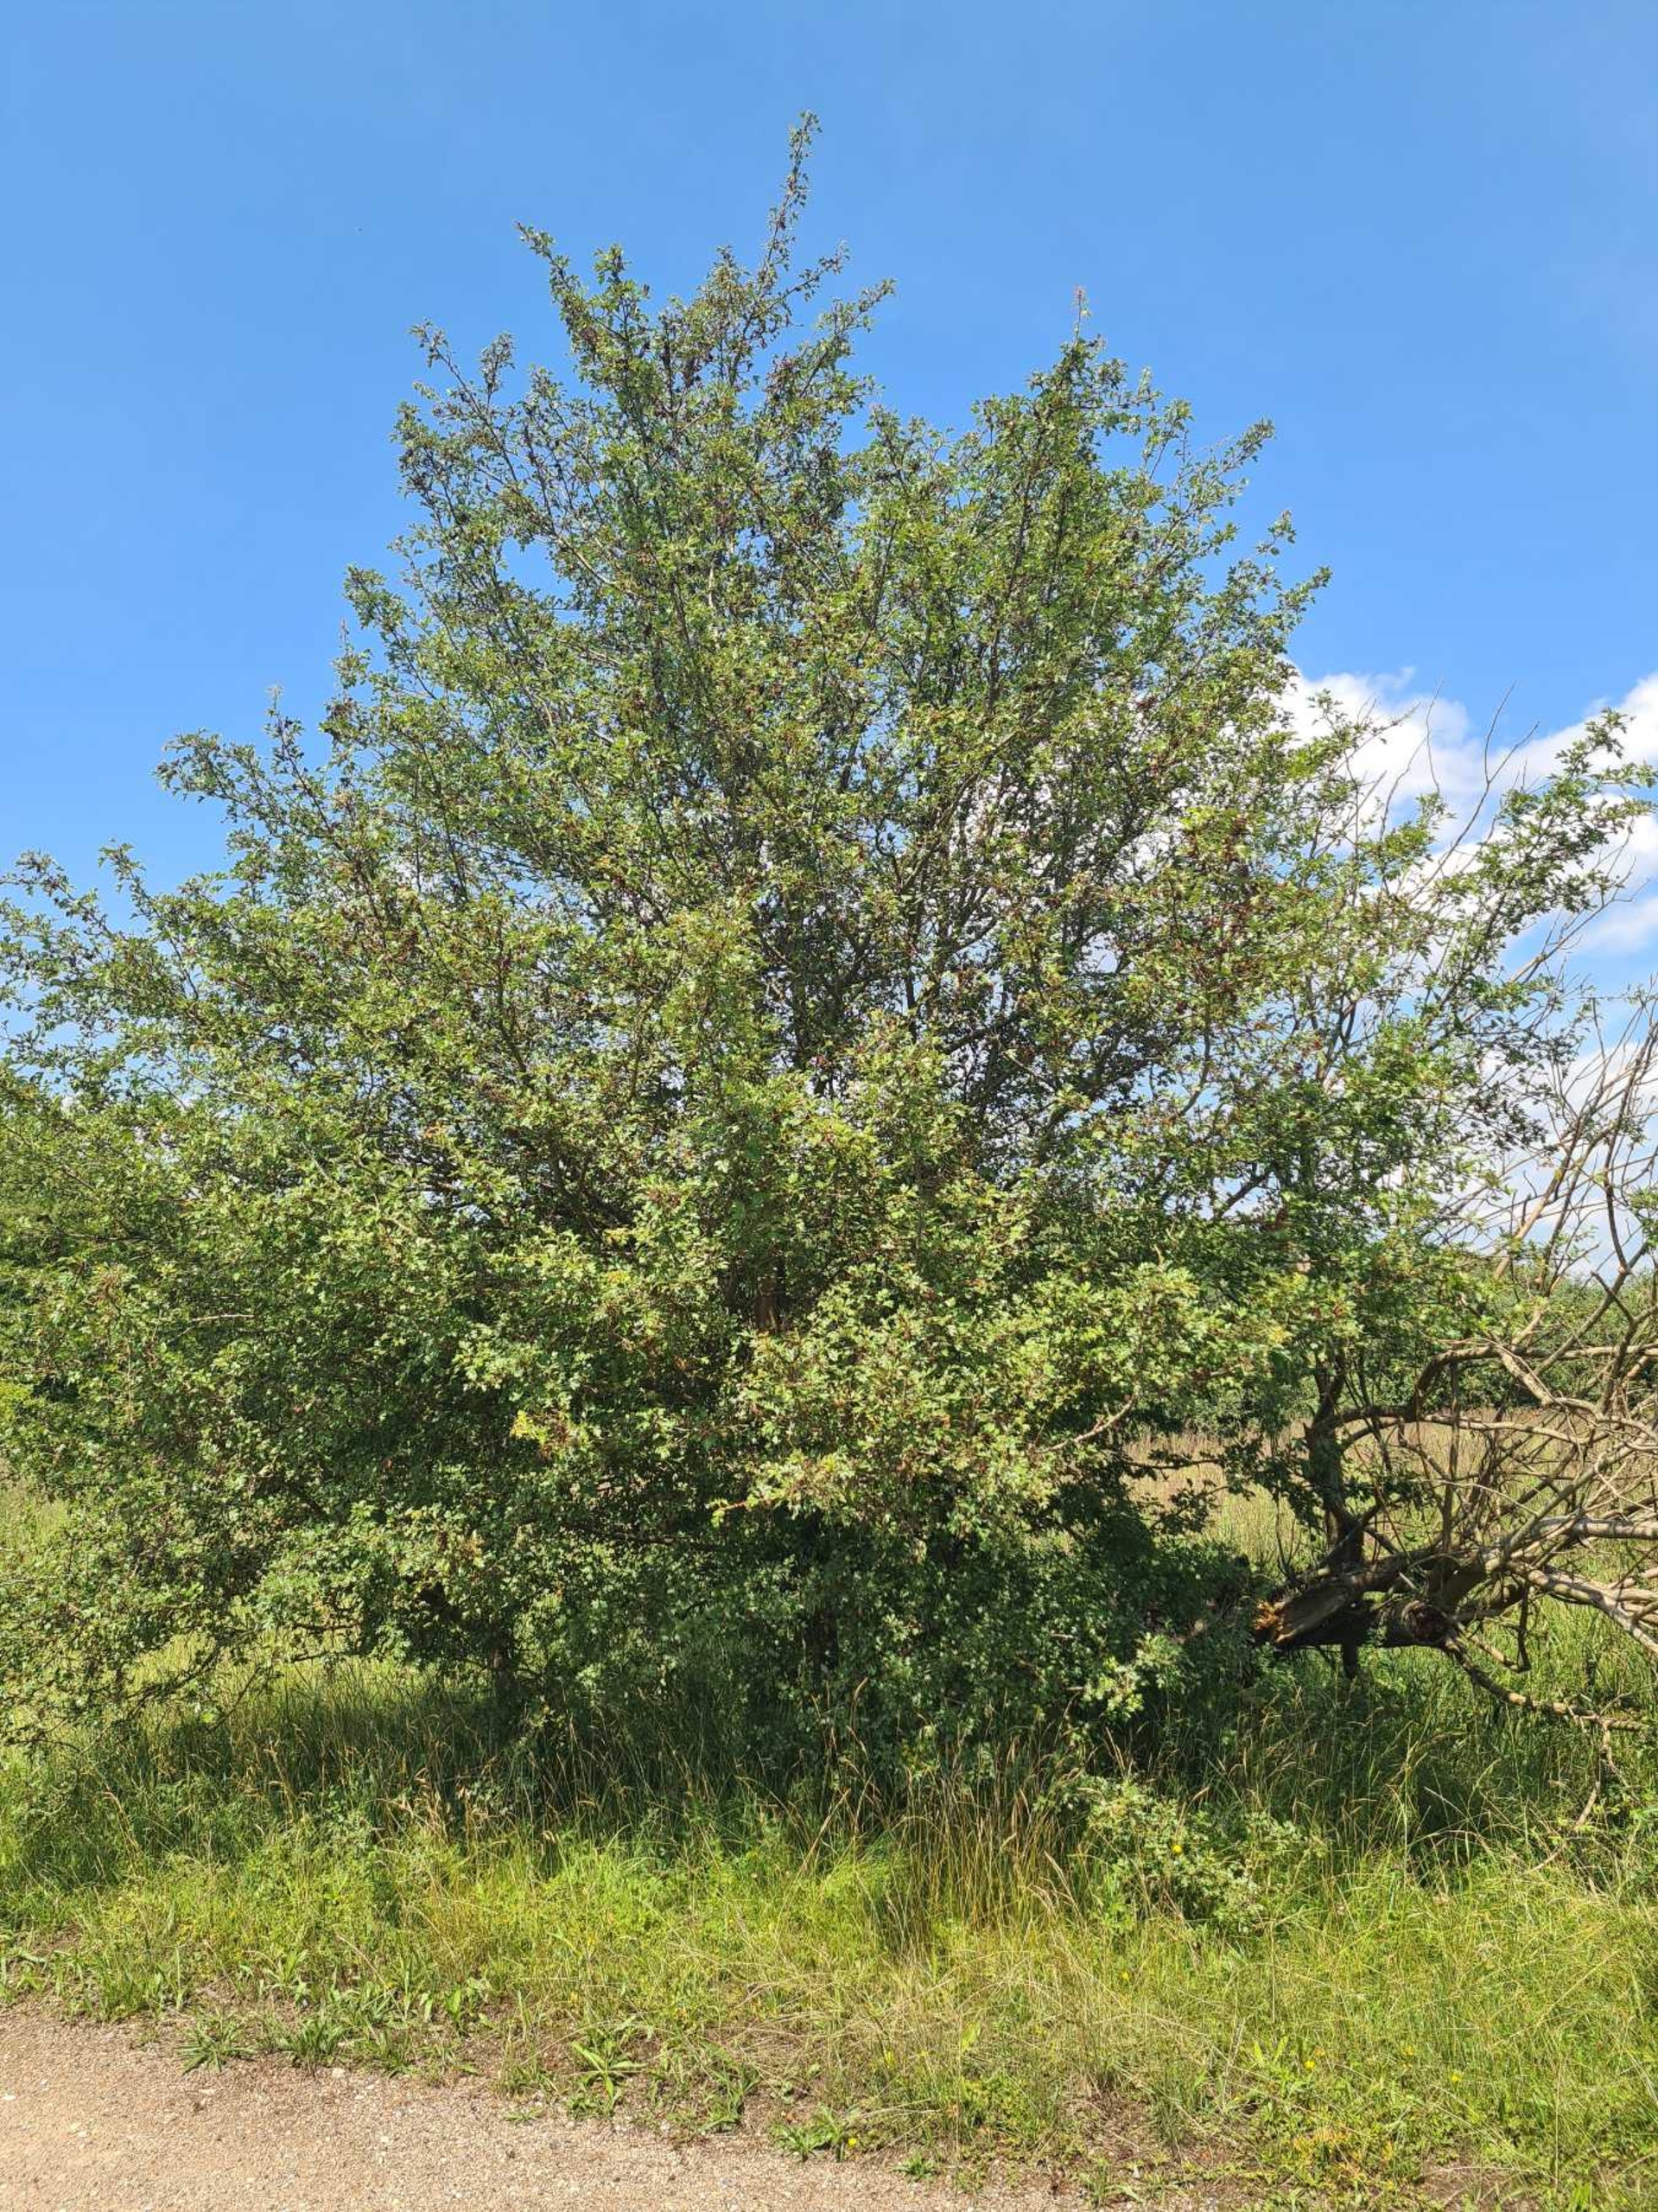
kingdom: Plantae
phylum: Tracheophyta
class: Magnoliopsida
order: Rosales
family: Rosaceae
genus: Crataegus
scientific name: Crataegus monogyna
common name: Engriflet hvidtjørn
